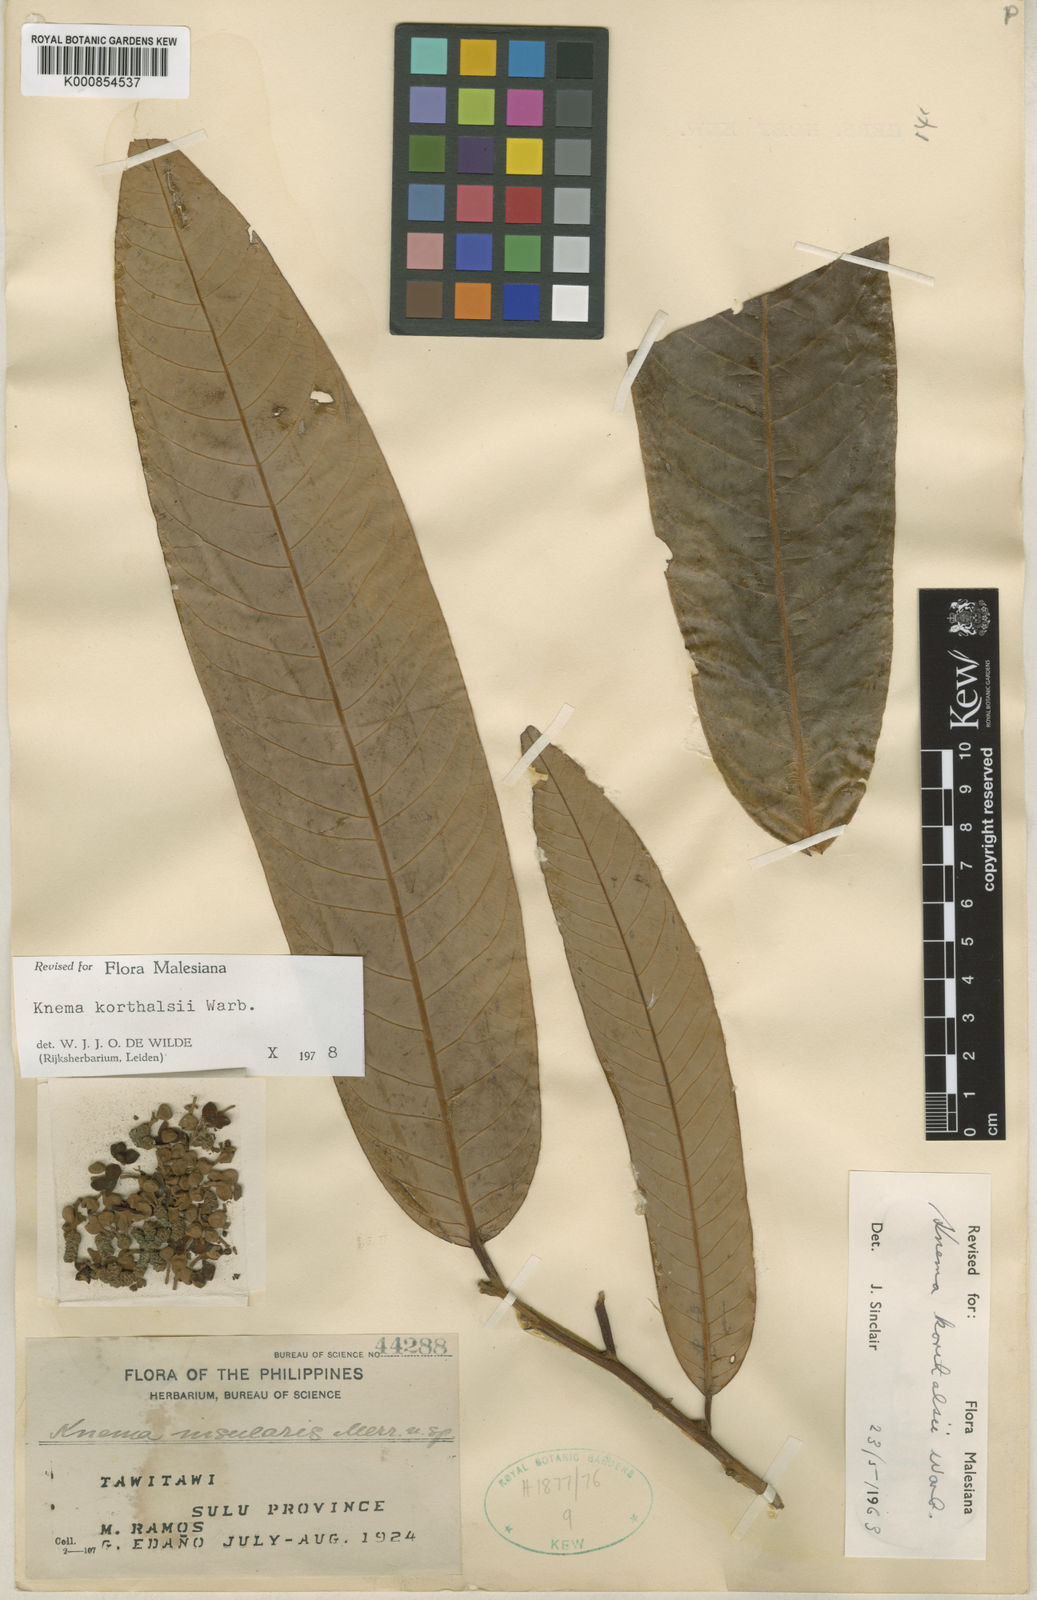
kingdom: Plantae
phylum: Tracheophyta
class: Magnoliopsida
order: Magnoliales
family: Myristicaceae
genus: Knema
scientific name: Knema korthalsii
